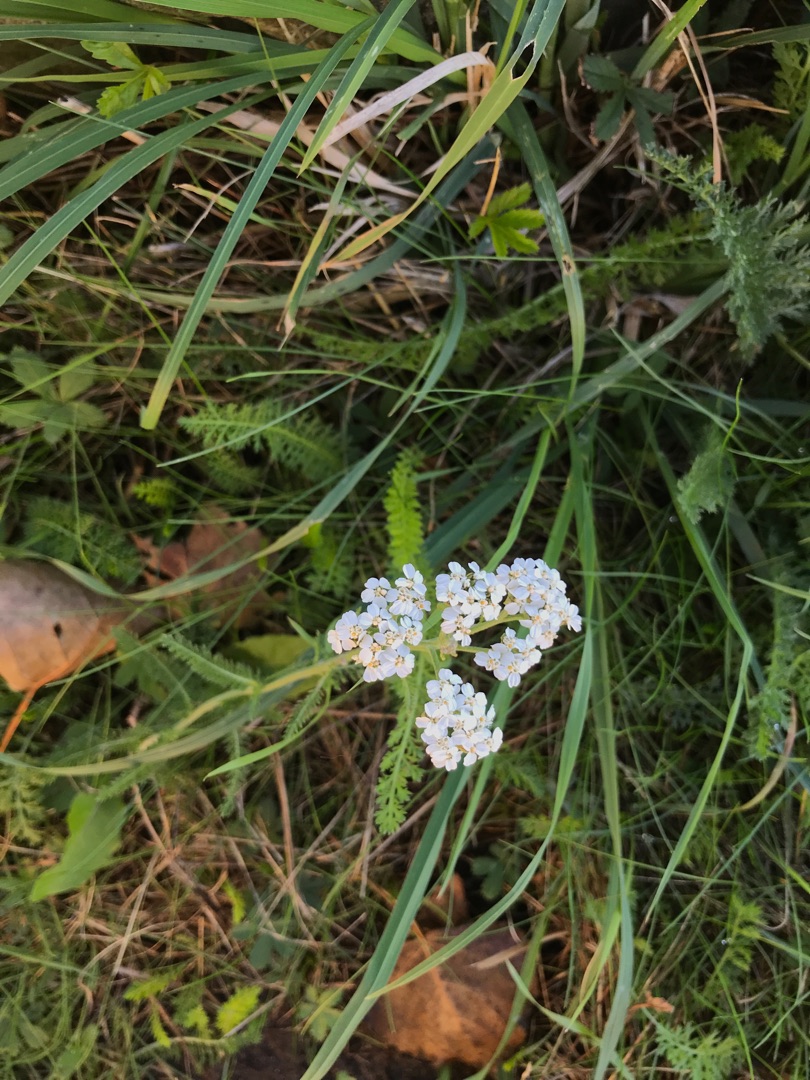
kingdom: Plantae
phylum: Tracheophyta
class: Magnoliopsida
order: Asterales
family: Asteraceae
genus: Achillea
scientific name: Achillea millefolium
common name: Almindelig røllike
